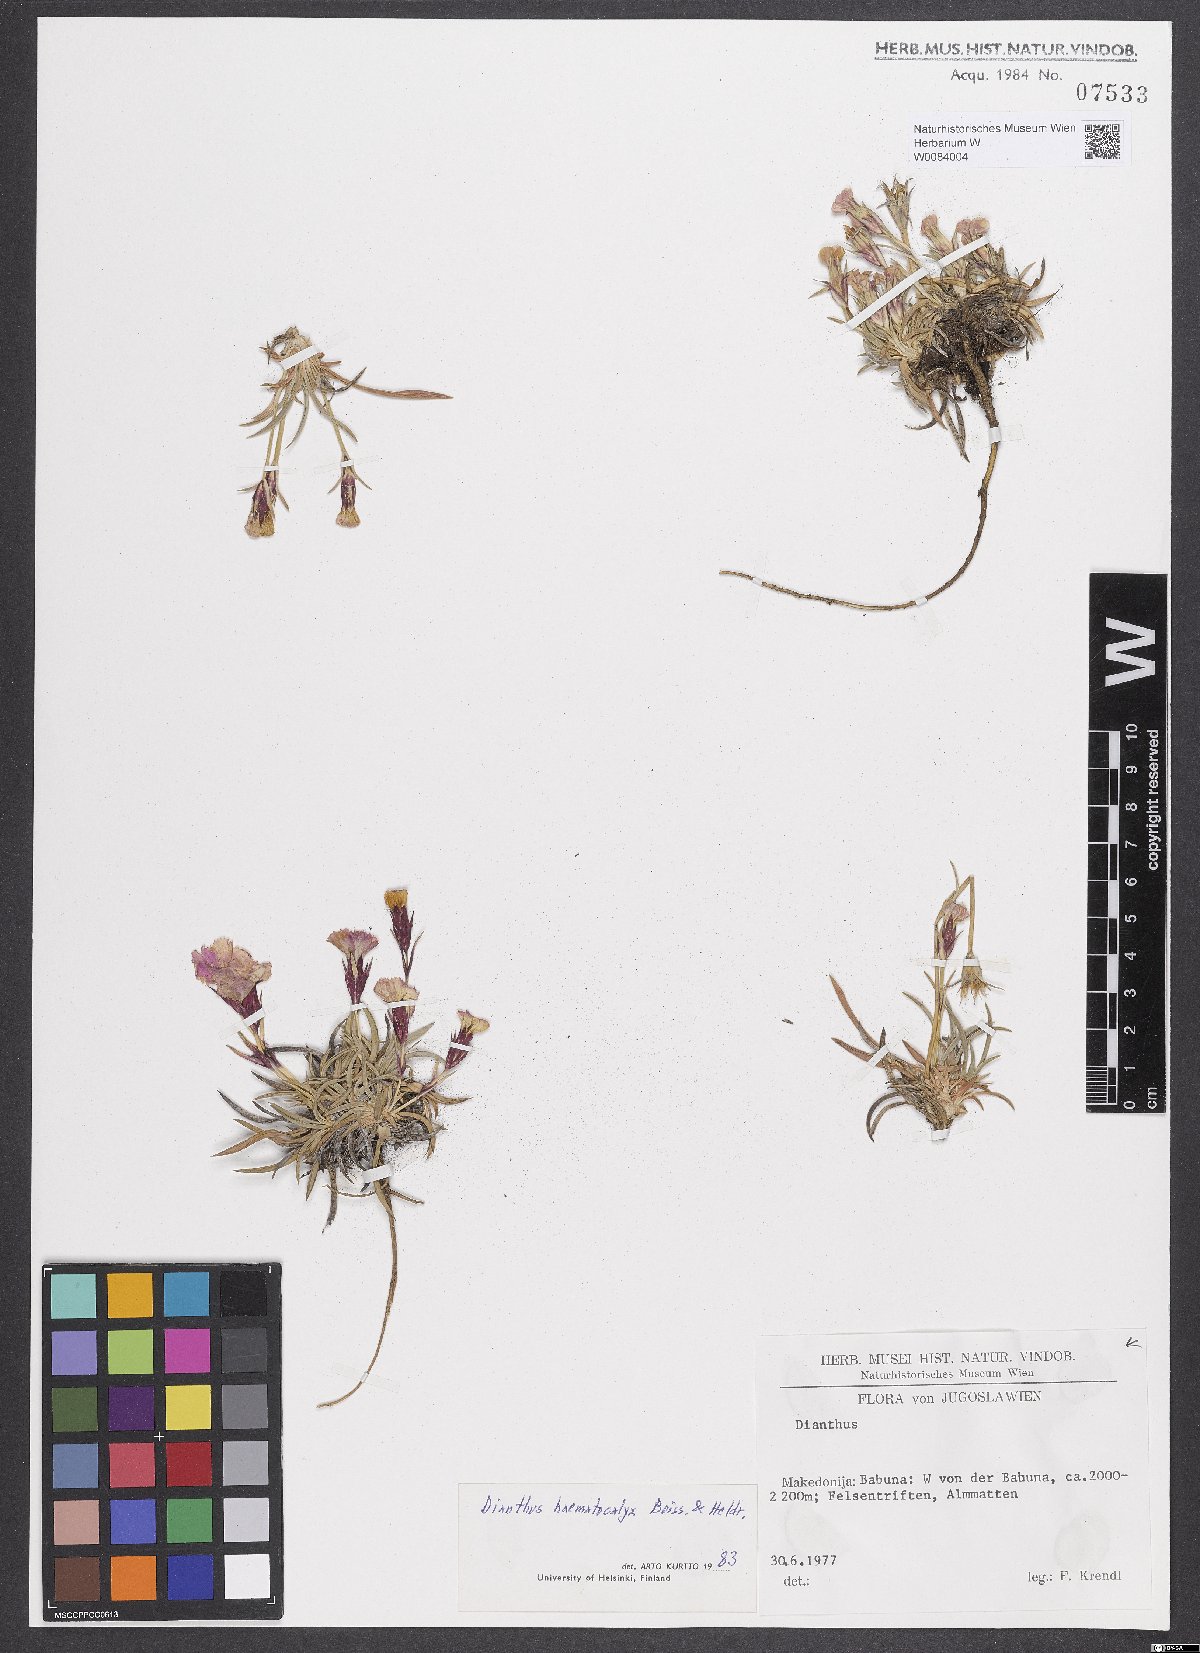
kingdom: Plantae
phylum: Tracheophyta
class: Magnoliopsida
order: Caryophyllales
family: Caryophyllaceae
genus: Dianthus
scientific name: Dianthus haematocalyx
